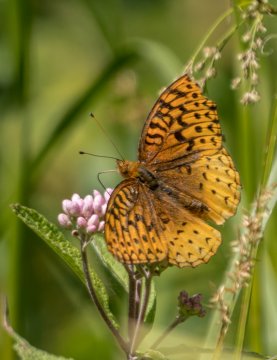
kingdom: Animalia
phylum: Arthropoda
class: Insecta
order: Lepidoptera
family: Nymphalidae
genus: Speyeria
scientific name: Speyeria cybele
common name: Great Spangled Fritillary
